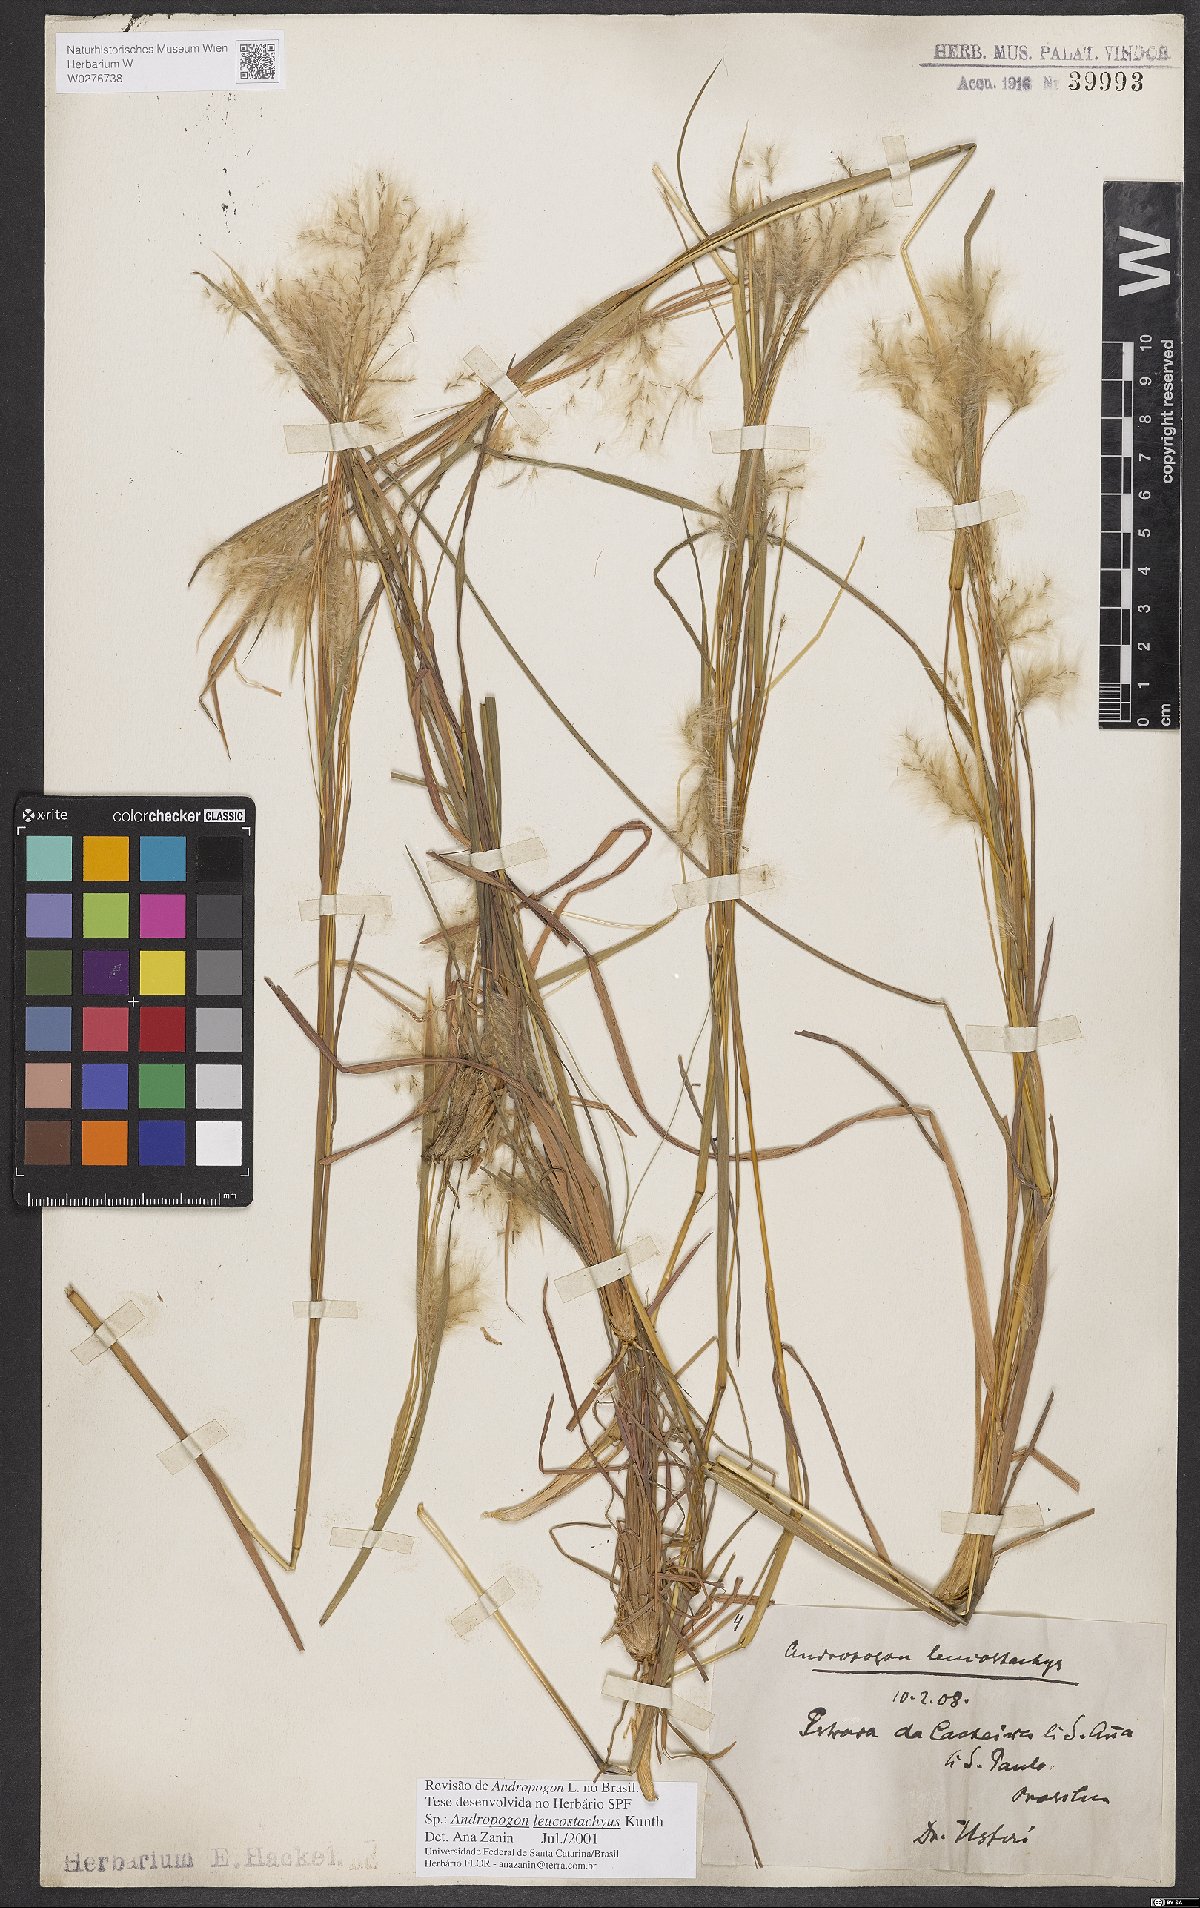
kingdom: Plantae
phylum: Tracheophyta
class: Liliopsida
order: Poales
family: Poaceae
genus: Andropogon
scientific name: Andropogon leucostachyus
